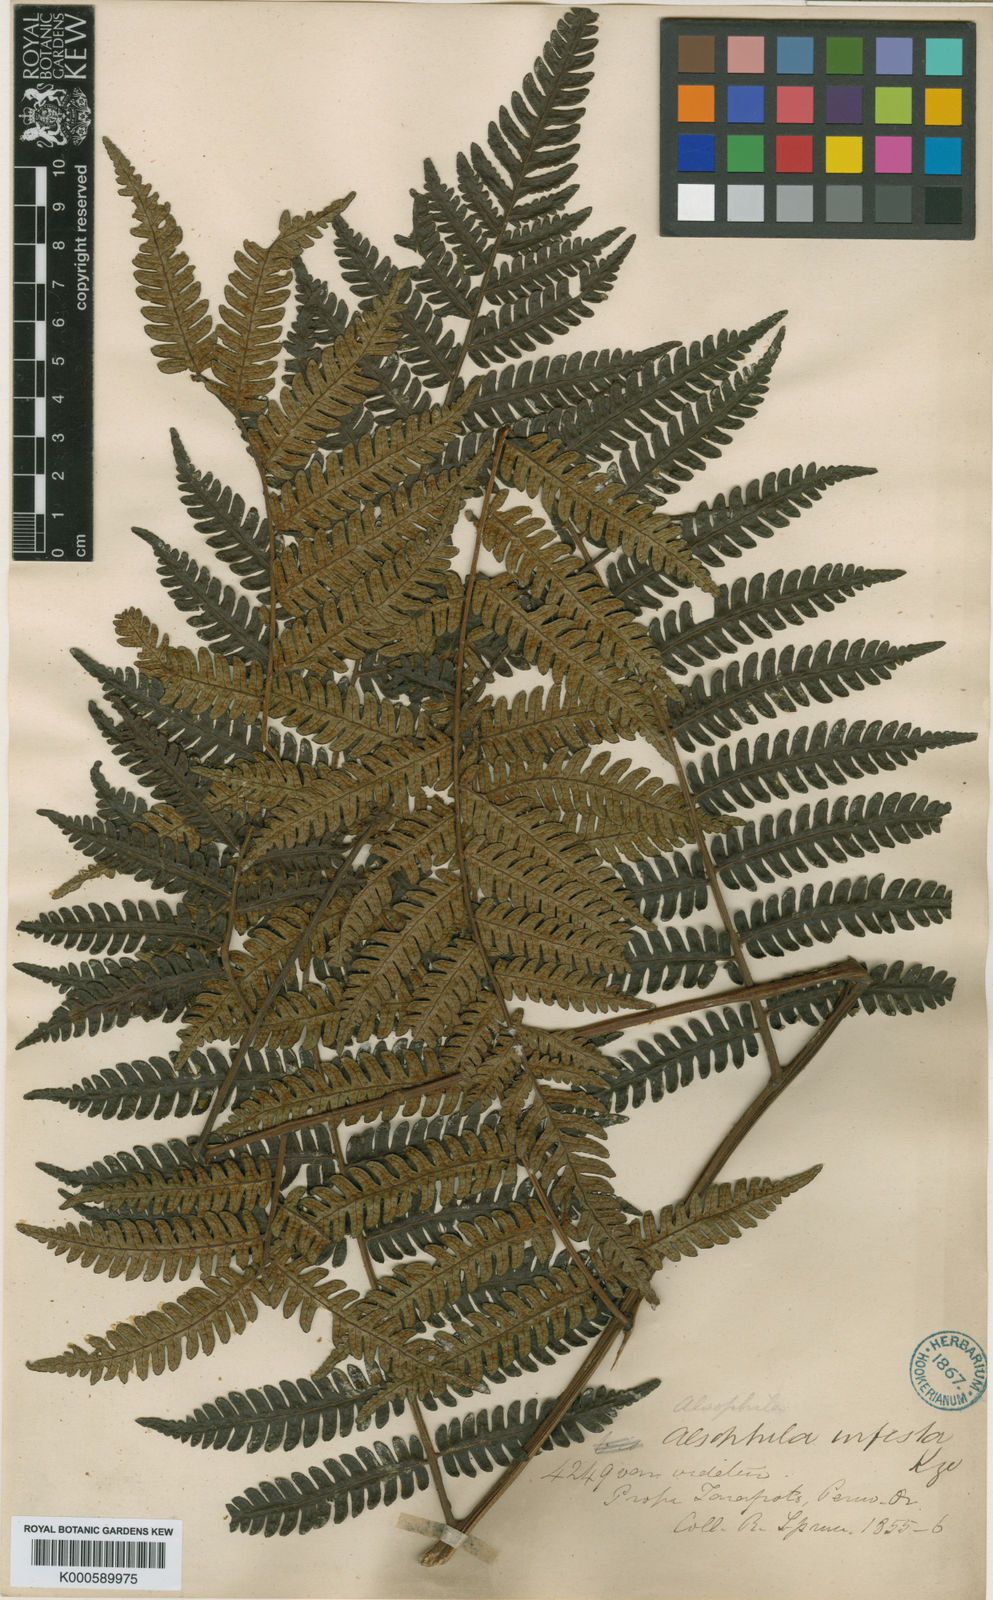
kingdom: Plantae
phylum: Tracheophyta
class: Polypodiopsida
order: Cyatheales
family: Cyatheaceae
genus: Cyathea
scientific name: Cyathea nigra
